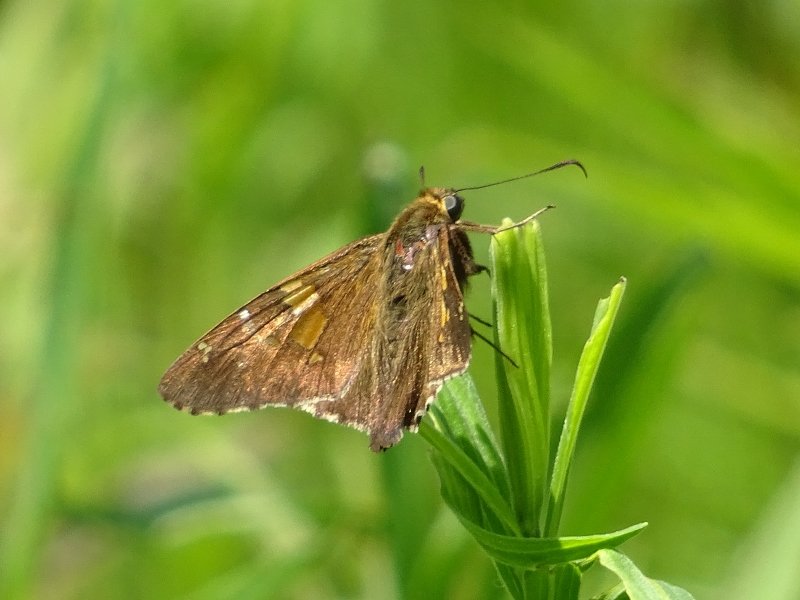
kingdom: Animalia
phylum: Arthropoda
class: Insecta
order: Lepidoptera
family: Hesperiidae
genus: Epargyreus
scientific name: Epargyreus clarus
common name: Silver-spotted Skipper
